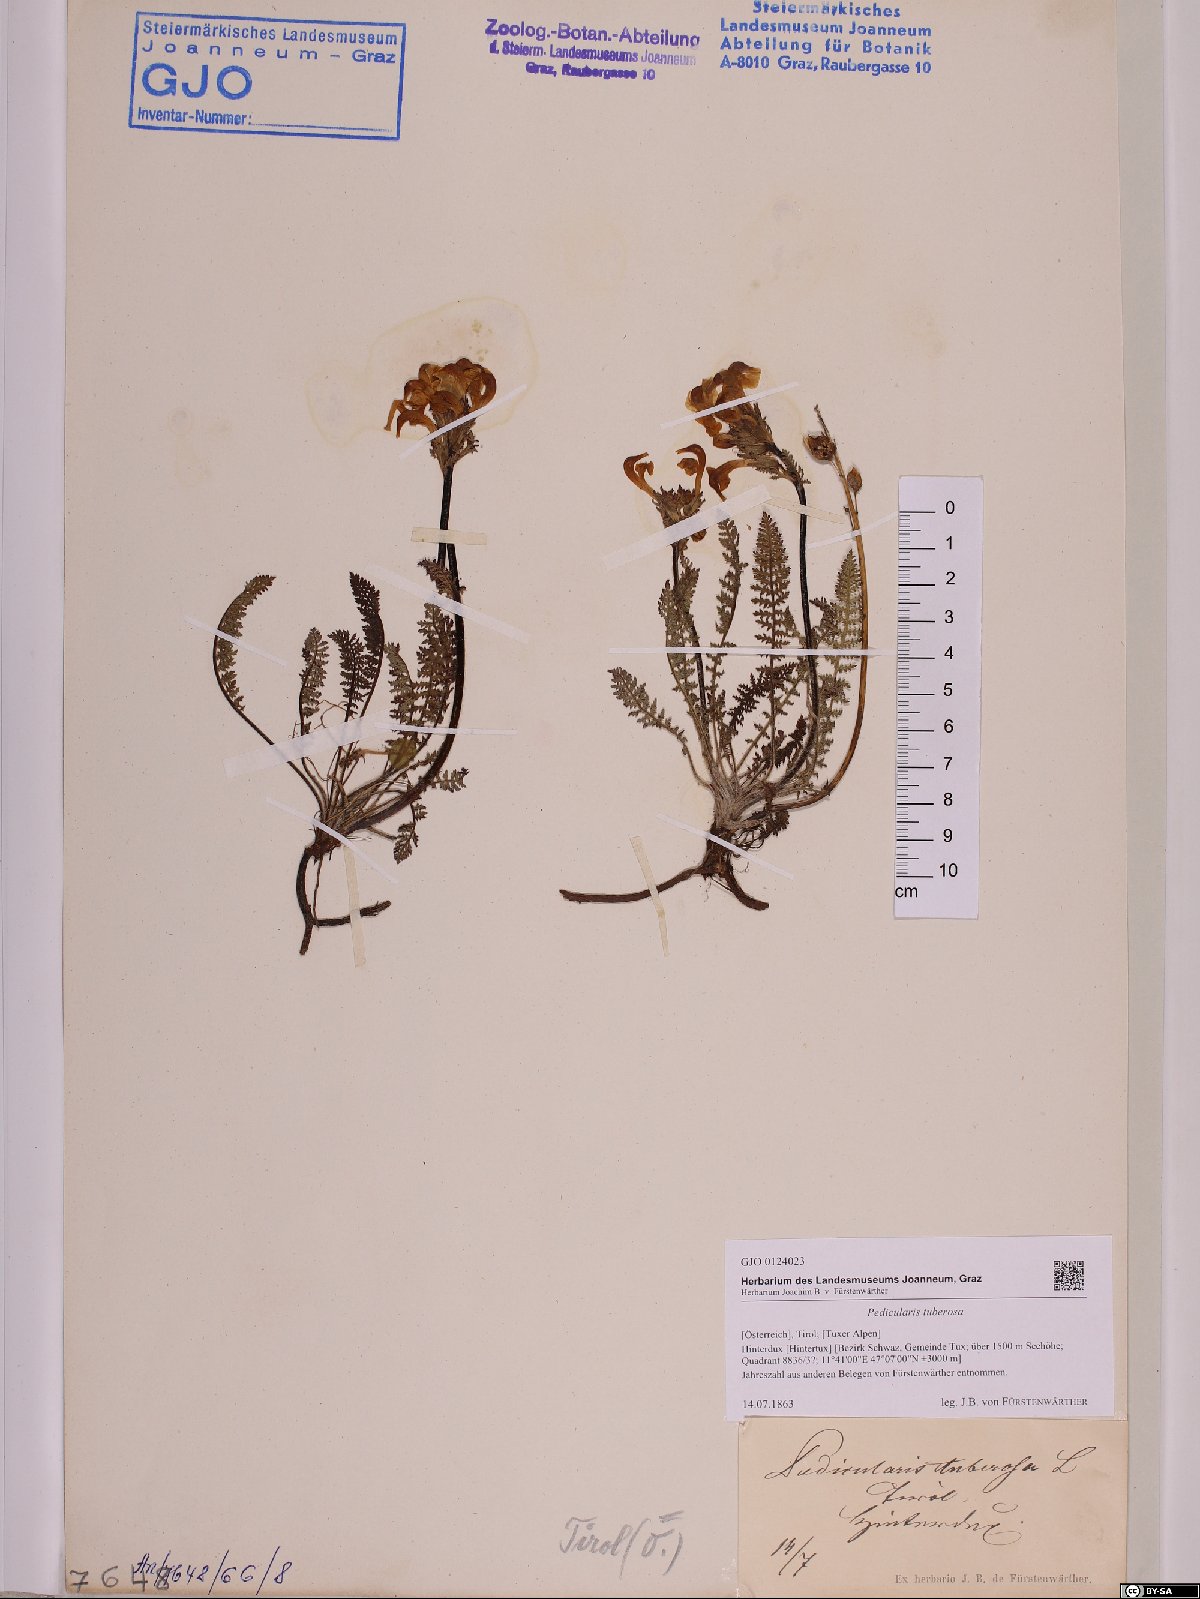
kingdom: Plantae
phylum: Tracheophyta
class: Magnoliopsida
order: Lamiales
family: Orobanchaceae
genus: Pedicularis
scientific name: Pedicularis tuberosa
